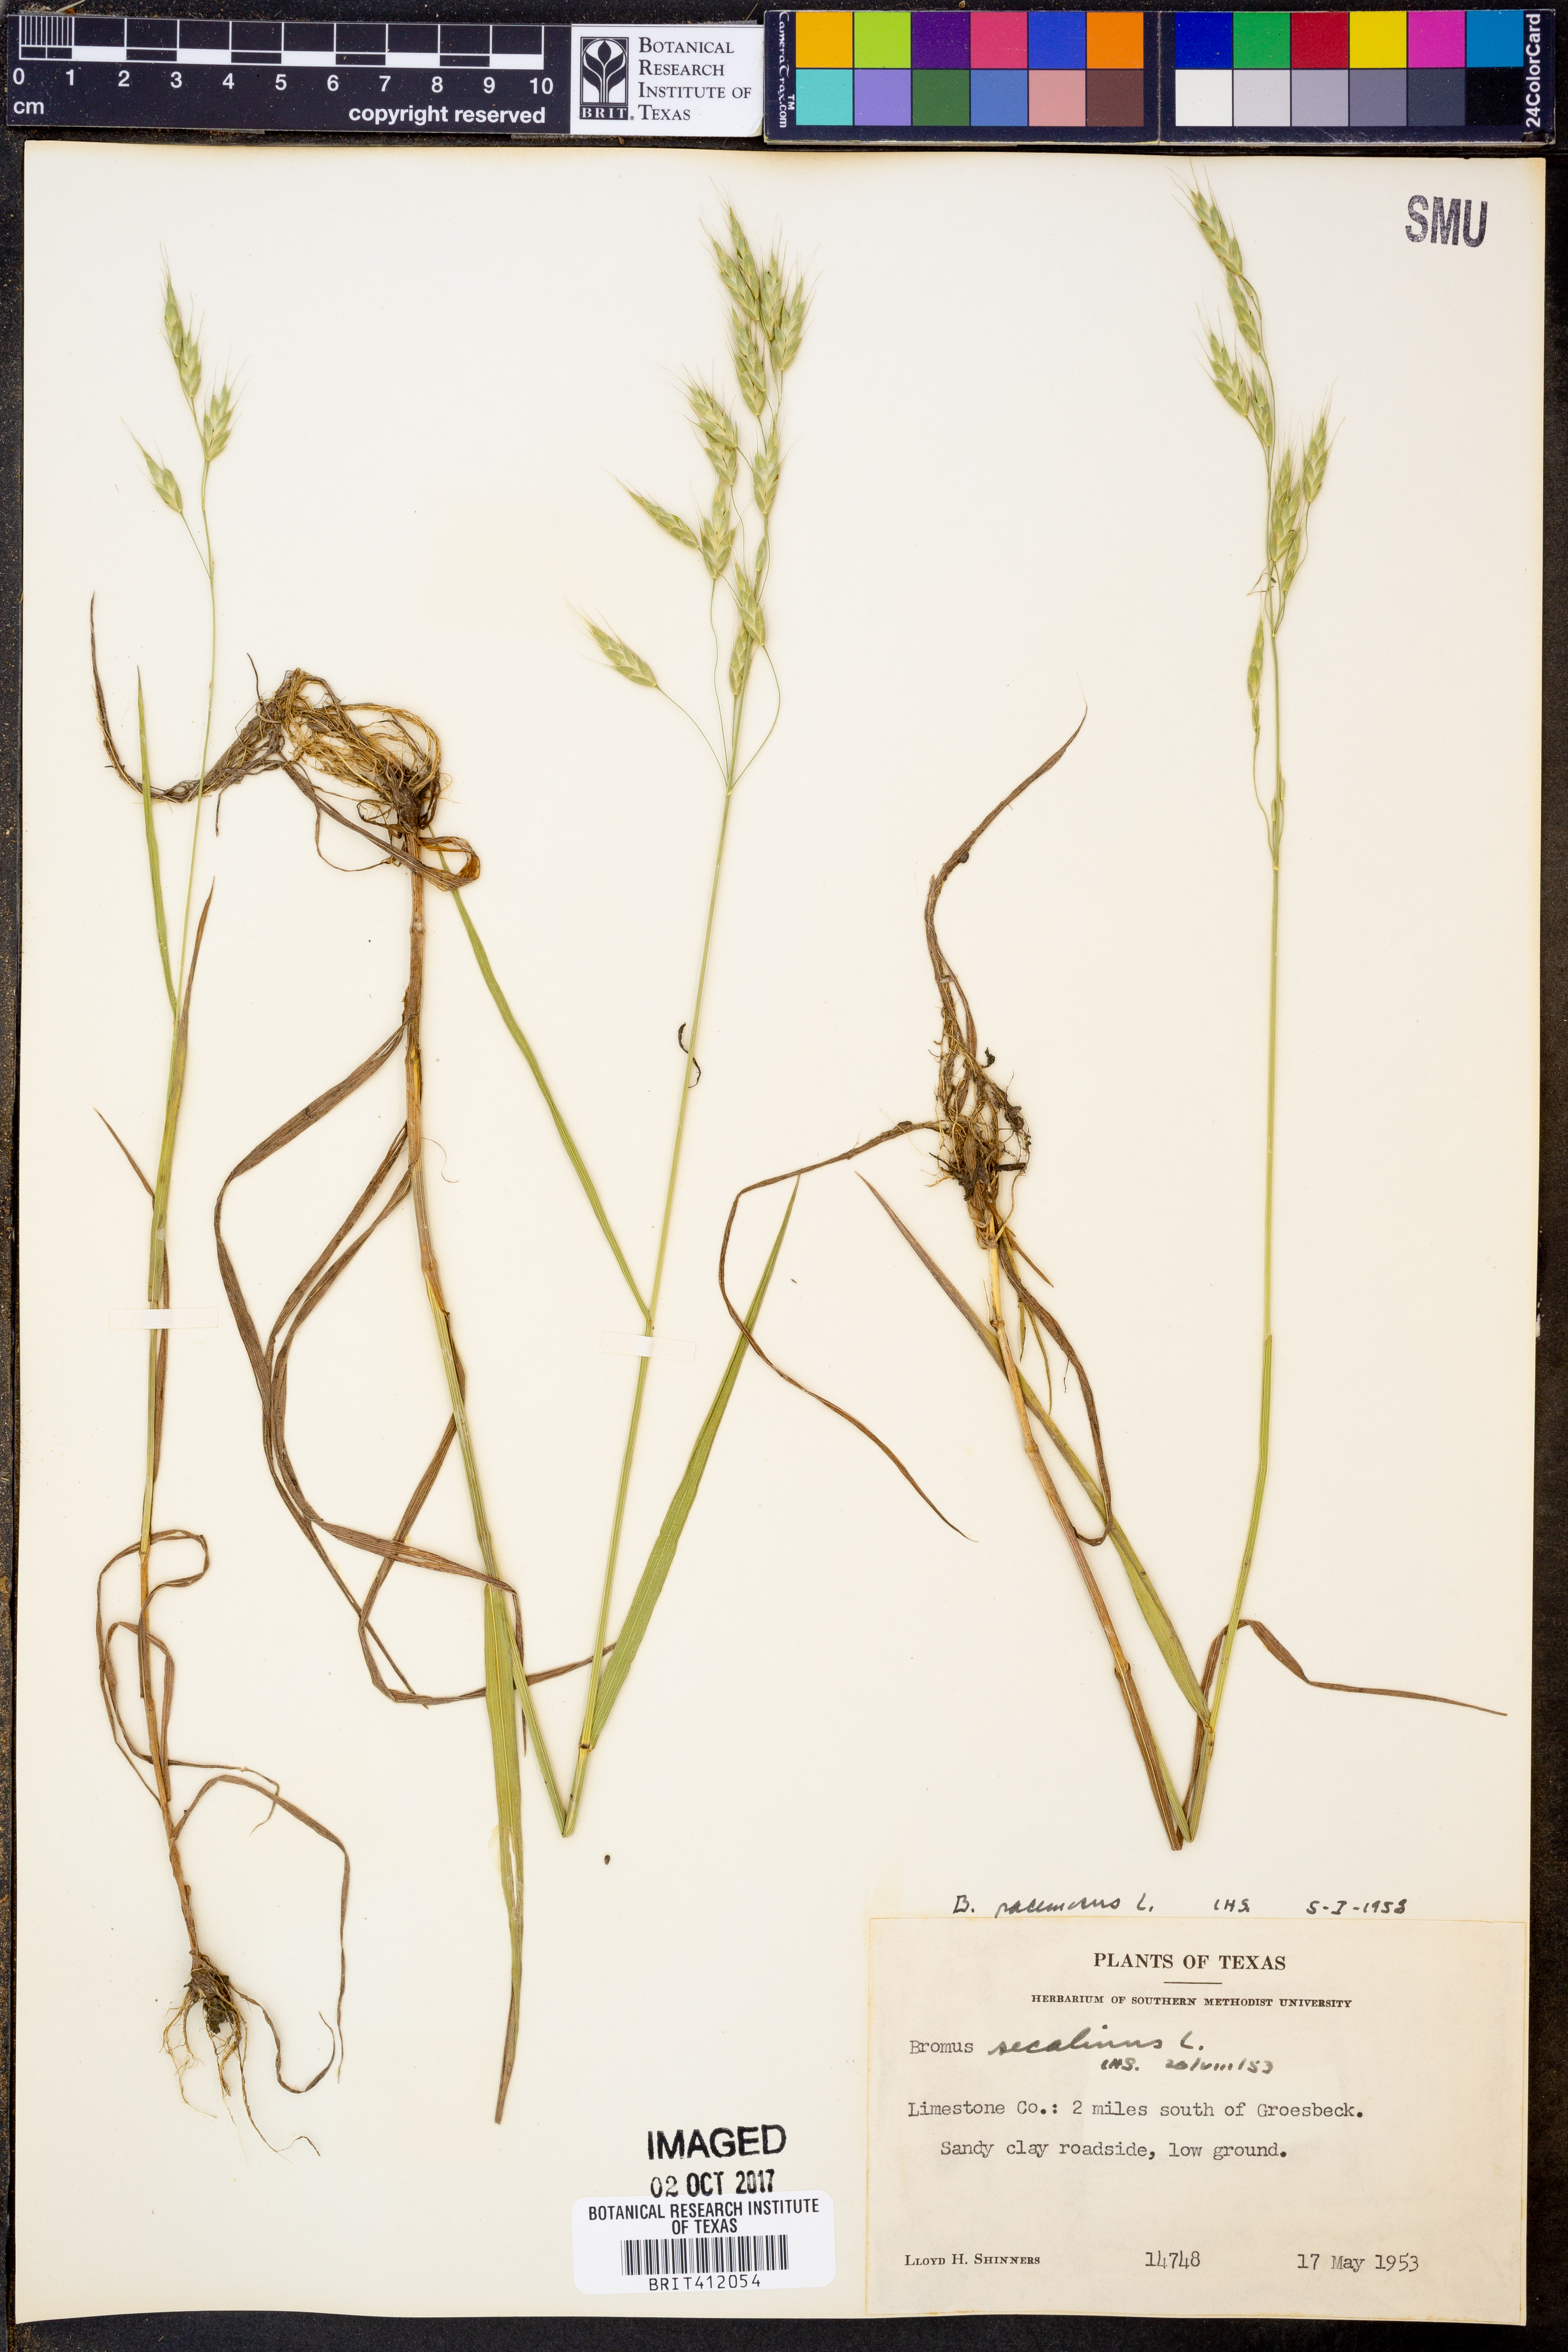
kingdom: Plantae
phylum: Tracheophyta
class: Liliopsida
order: Poales
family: Poaceae
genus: Bromus
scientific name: Bromus racemosus
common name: Bald brome
